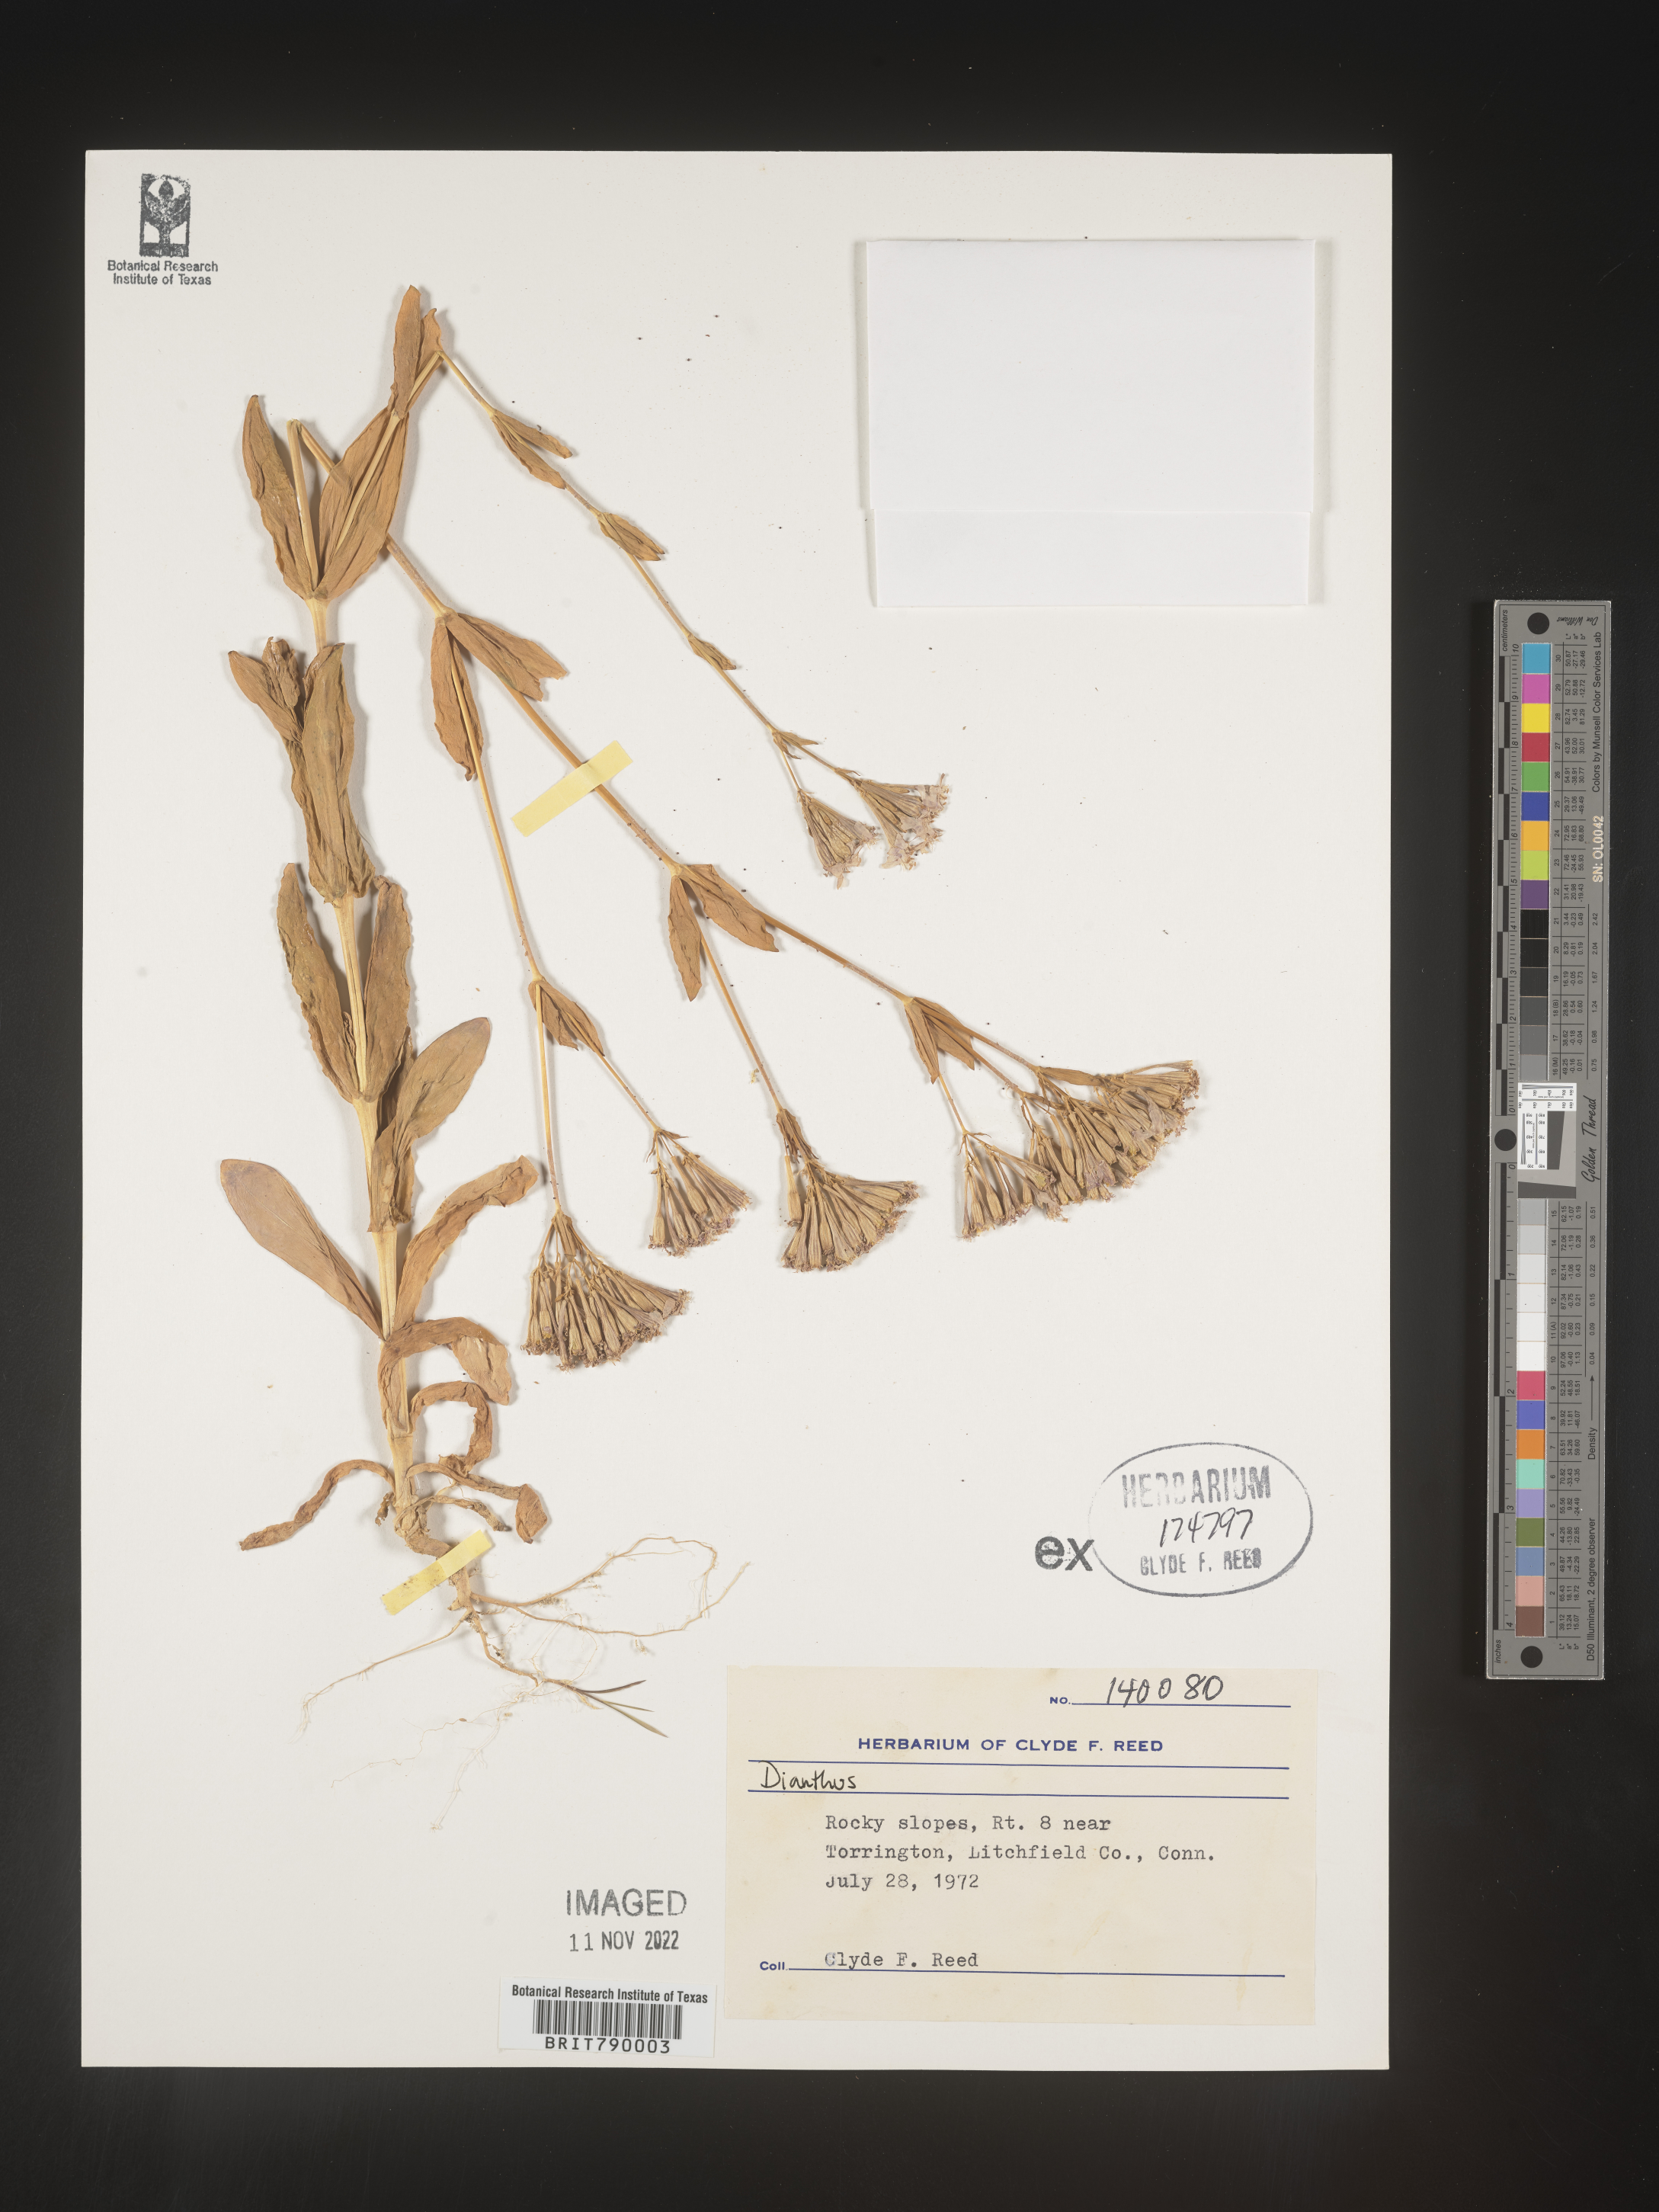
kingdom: Plantae
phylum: Tracheophyta
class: Magnoliopsida
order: Caryophyllales
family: Caryophyllaceae
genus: Dianthus
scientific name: Dianthus
